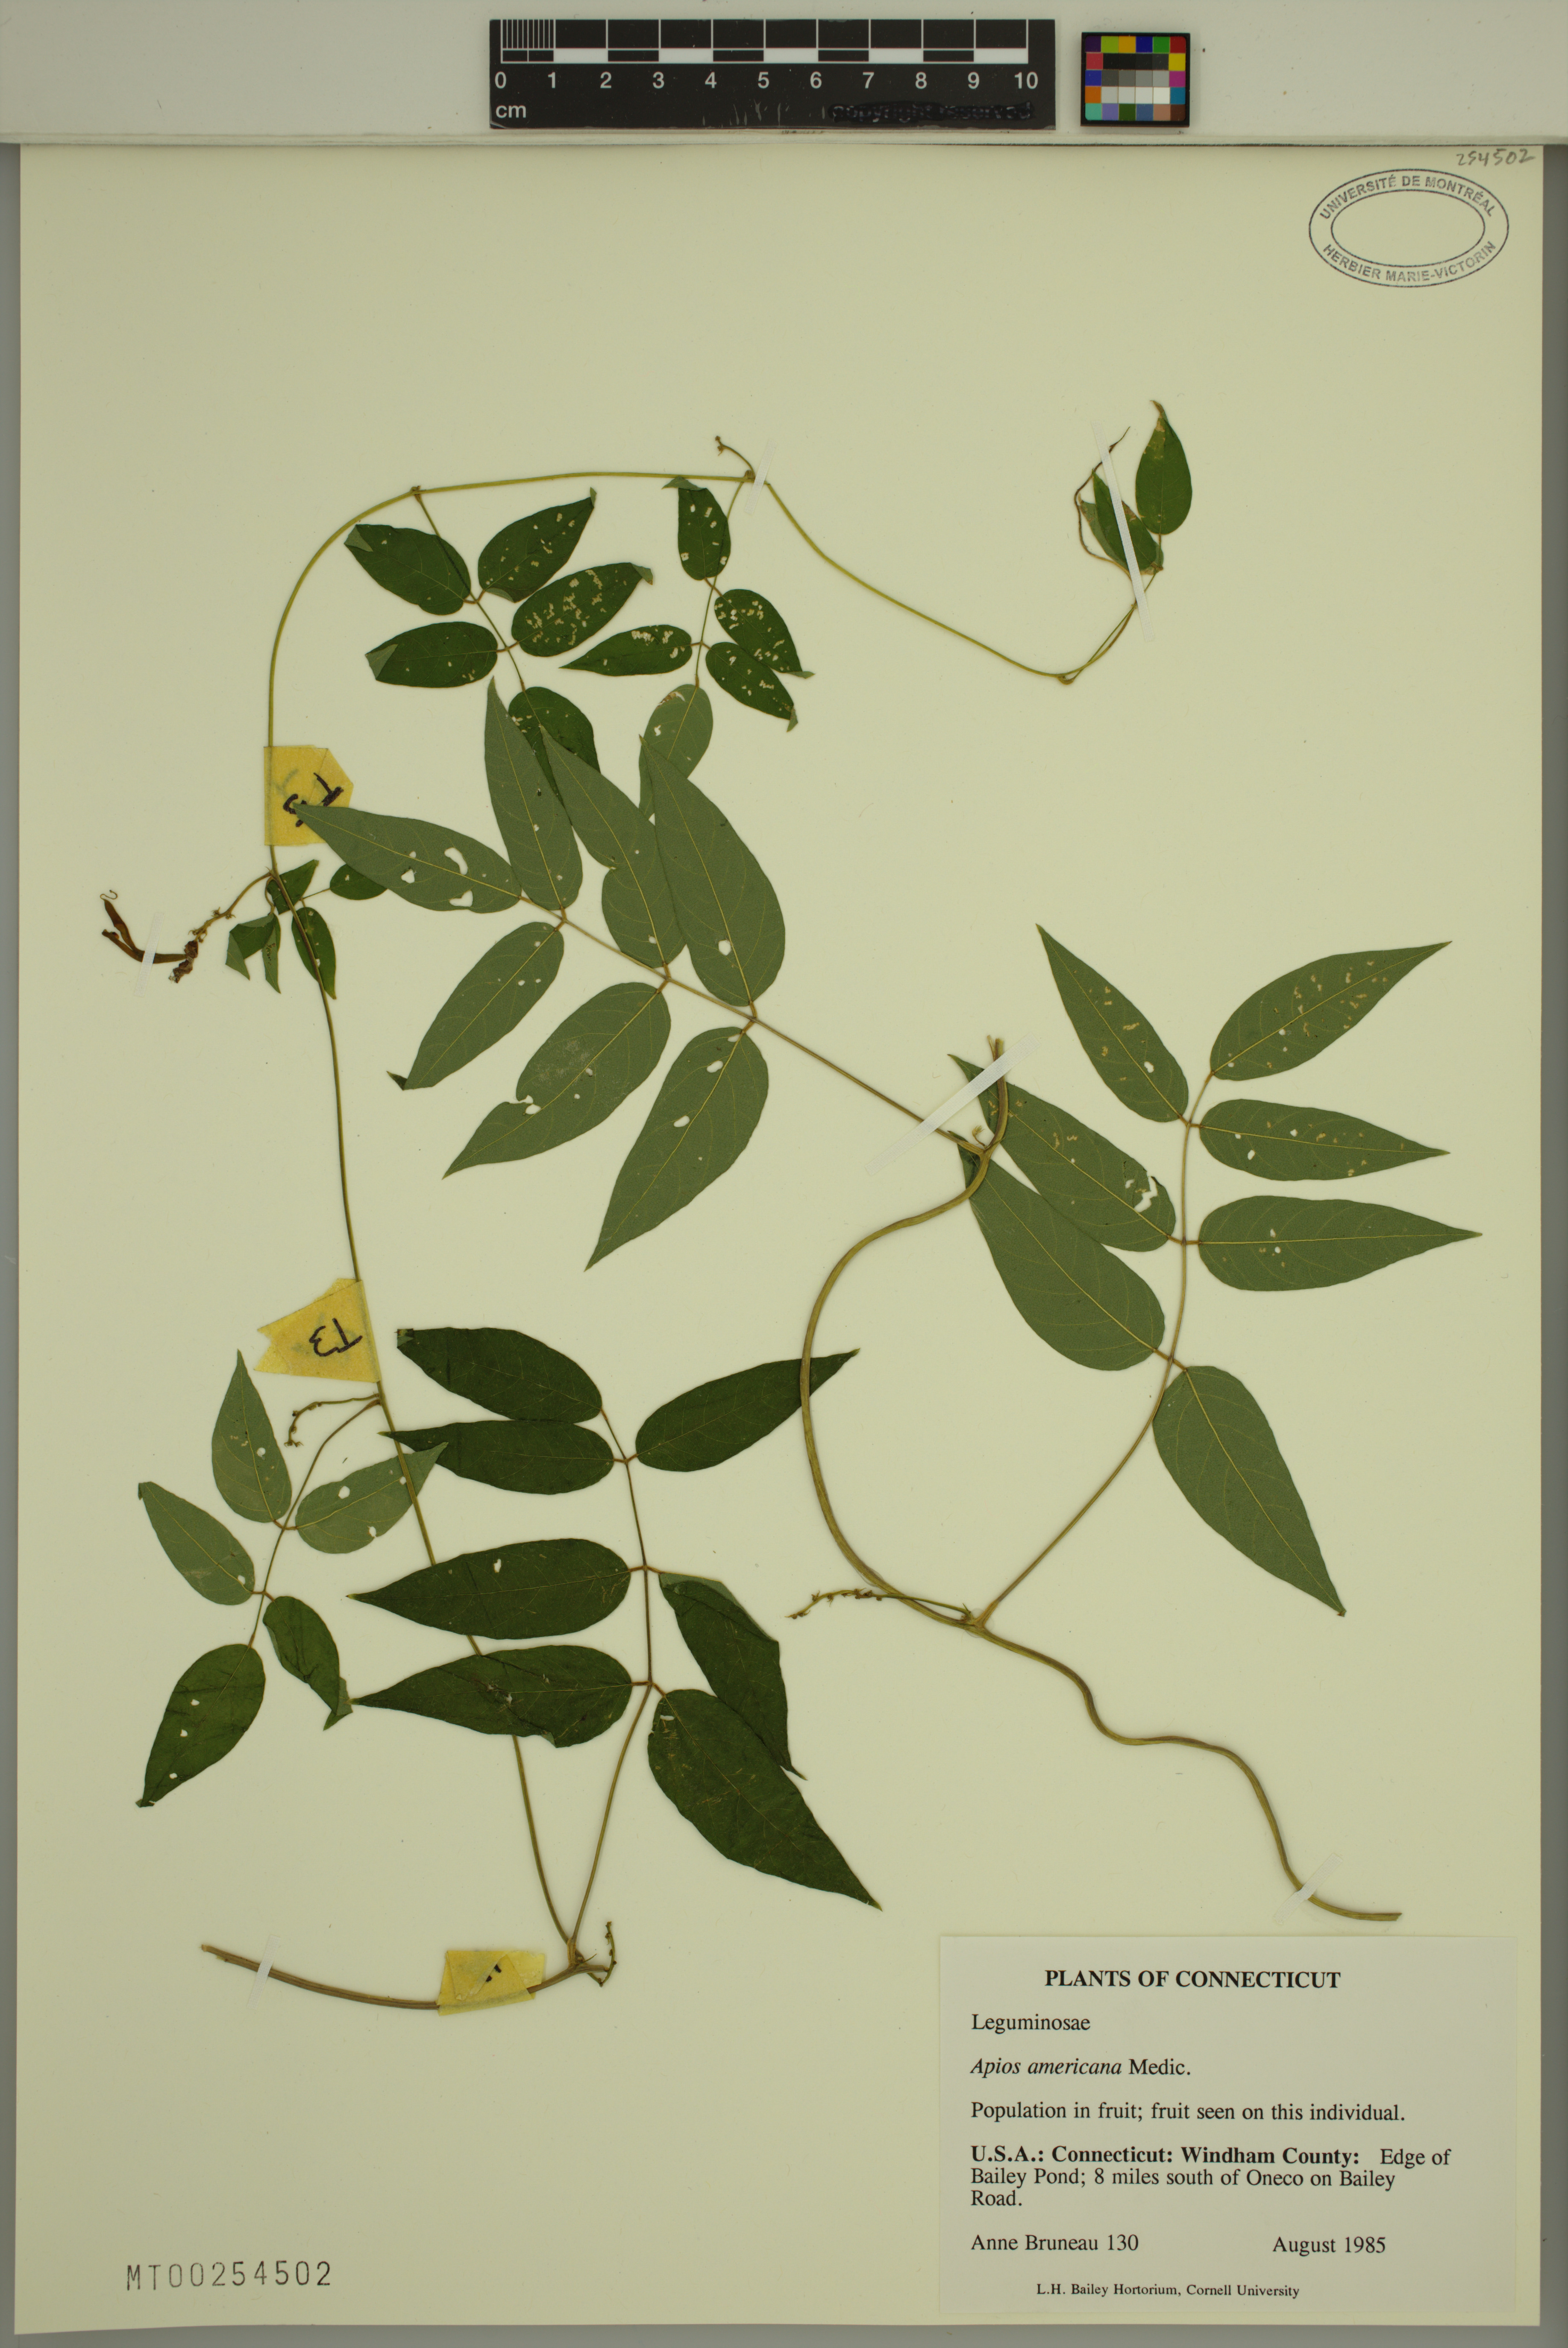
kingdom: Plantae
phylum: Tracheophyta
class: Magnoliopsida
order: Fabales
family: Fabaceae
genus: Apios
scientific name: Apios americana
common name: American potato-bean
